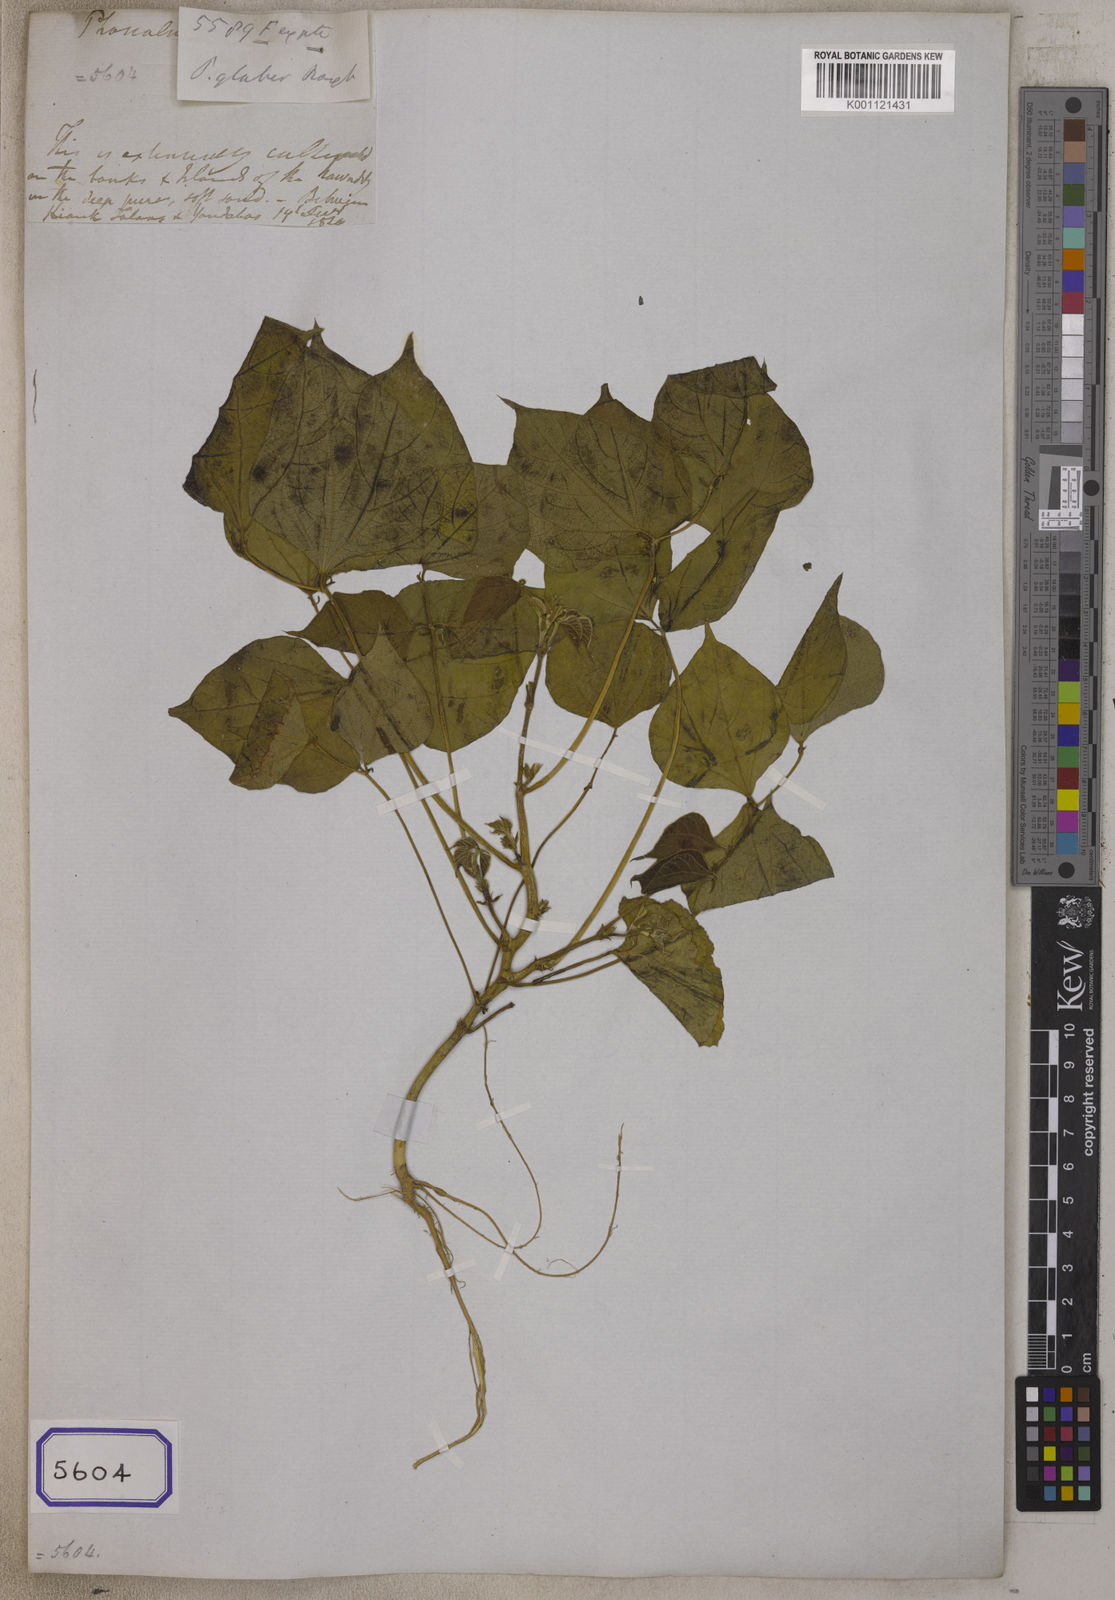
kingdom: Plantae
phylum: Tracheophyta
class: Magnoliopsida
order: Fabales
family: Fabaceae
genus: Vigna
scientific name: Vigna glabrescens
